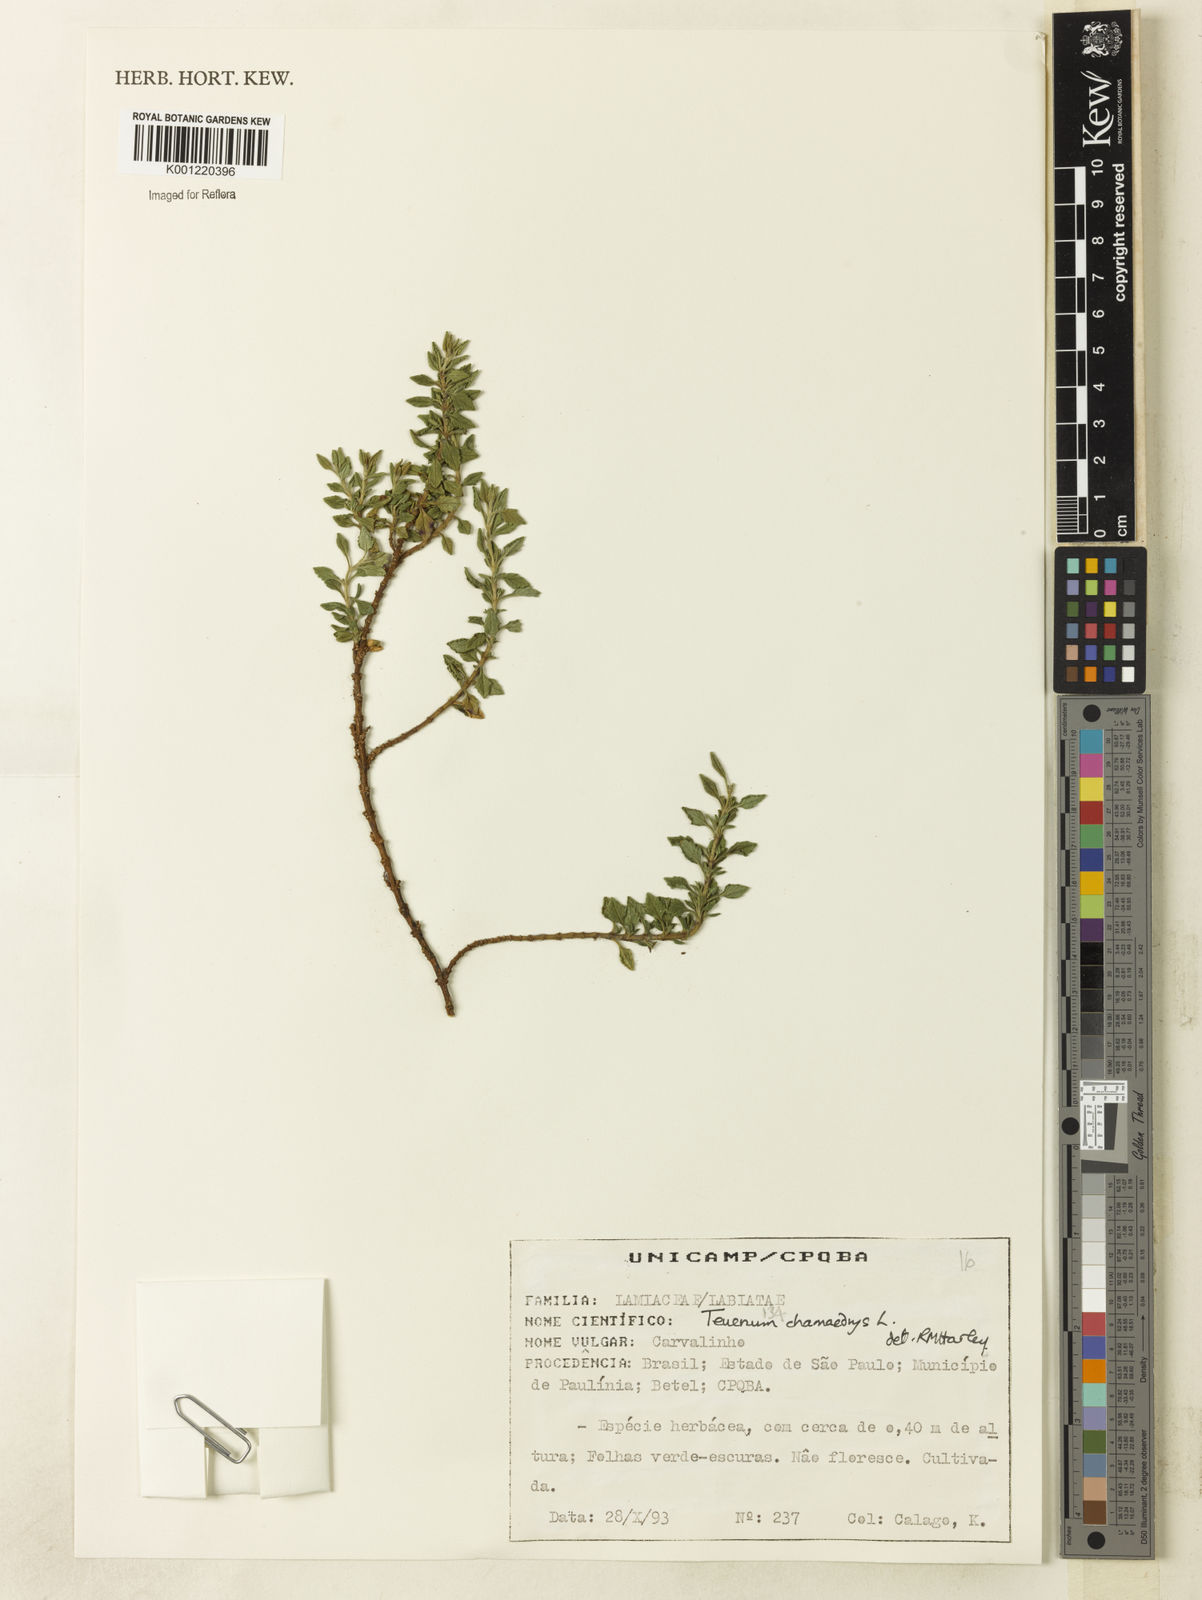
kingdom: Plantae
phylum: Tracheophyta
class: Magnoliopsida
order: Lamiales
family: Lamiaceae
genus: Teucrium
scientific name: Teucrium chamaedrys
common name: Wall germander
